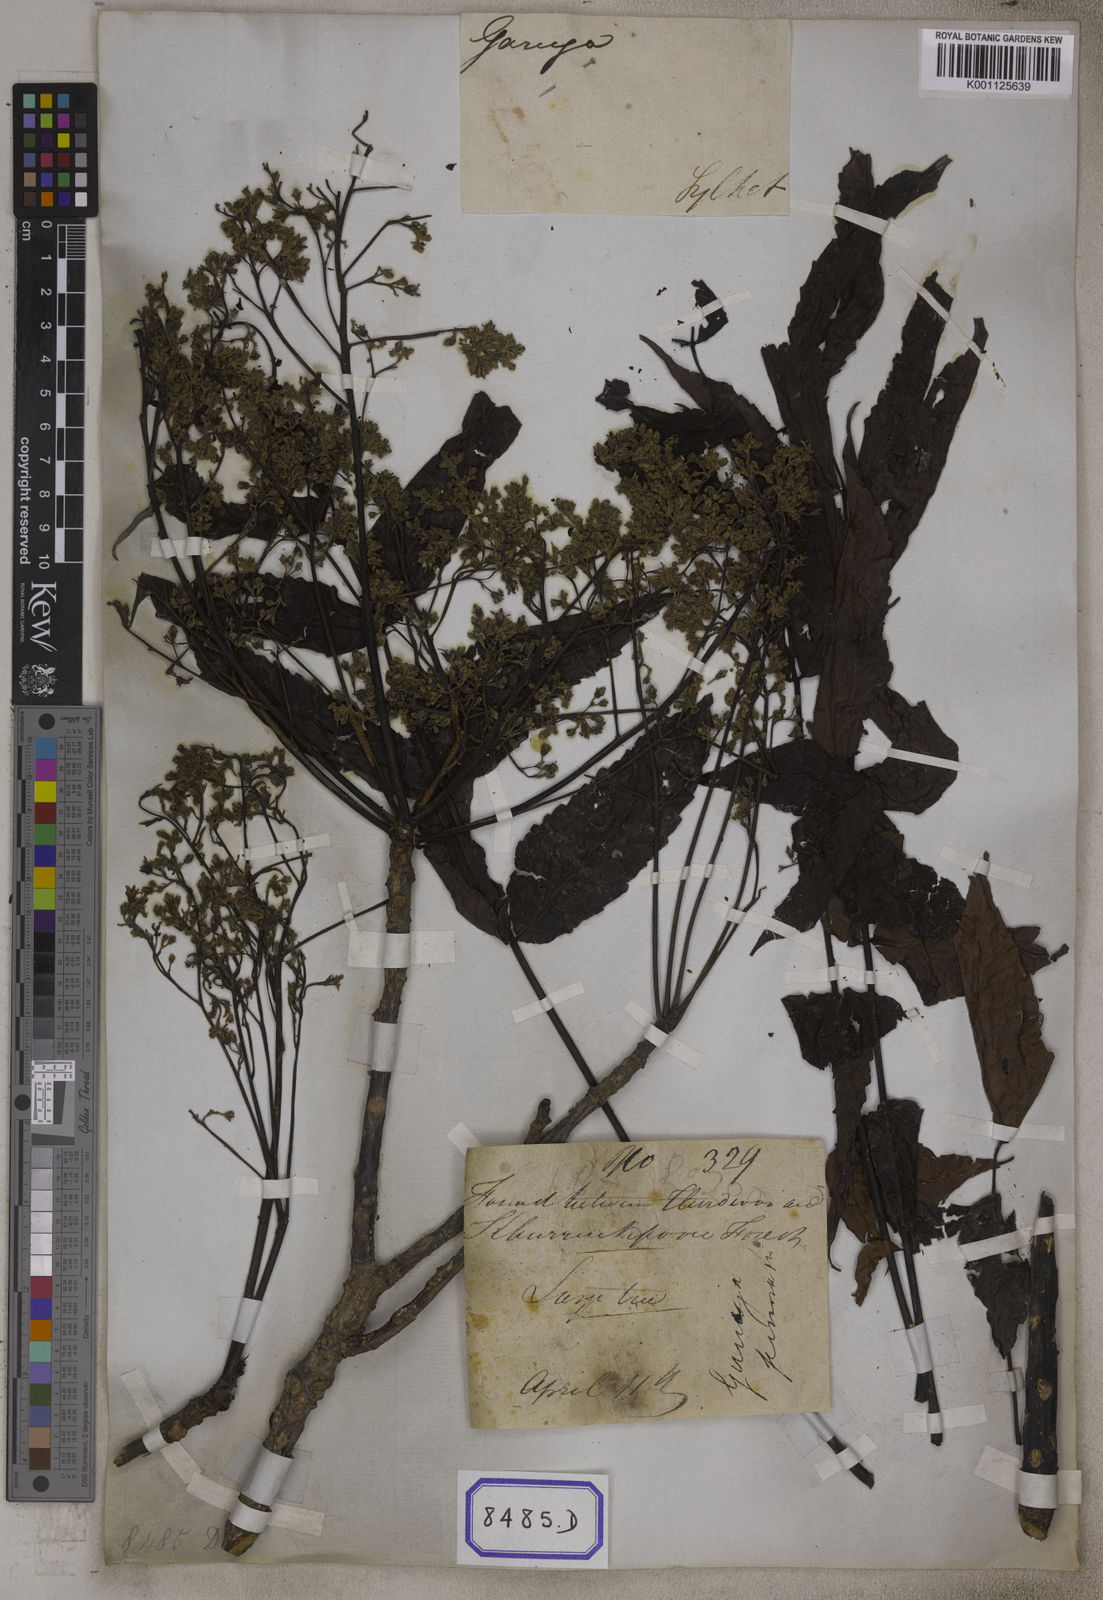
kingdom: Plantae
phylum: Tracheophyta
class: Magnoliopsida
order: Sapindales
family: Burseraceae
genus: Garuga
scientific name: Garuga pinnata
